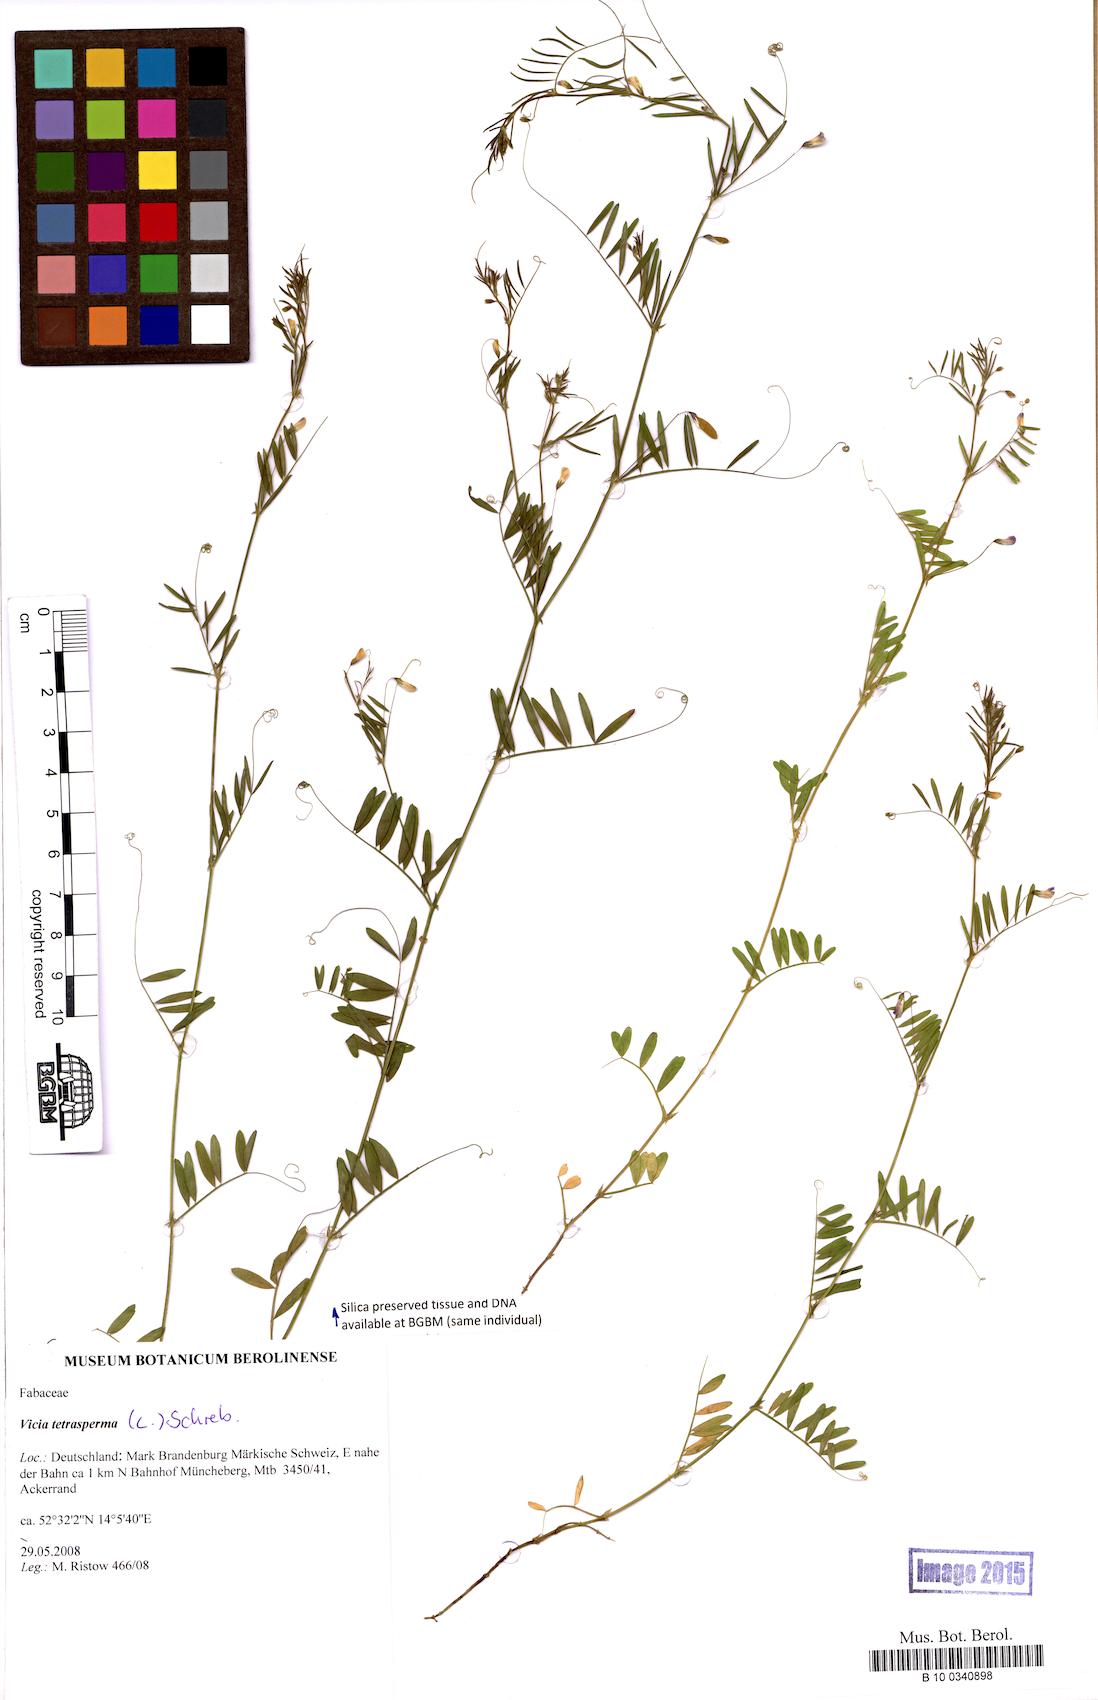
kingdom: Plantae
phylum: Tracheophyta
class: Magnoliopsida
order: Fabales
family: Fabaceae
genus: Vicia
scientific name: Vicia tetrasperma
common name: Smooth tare
